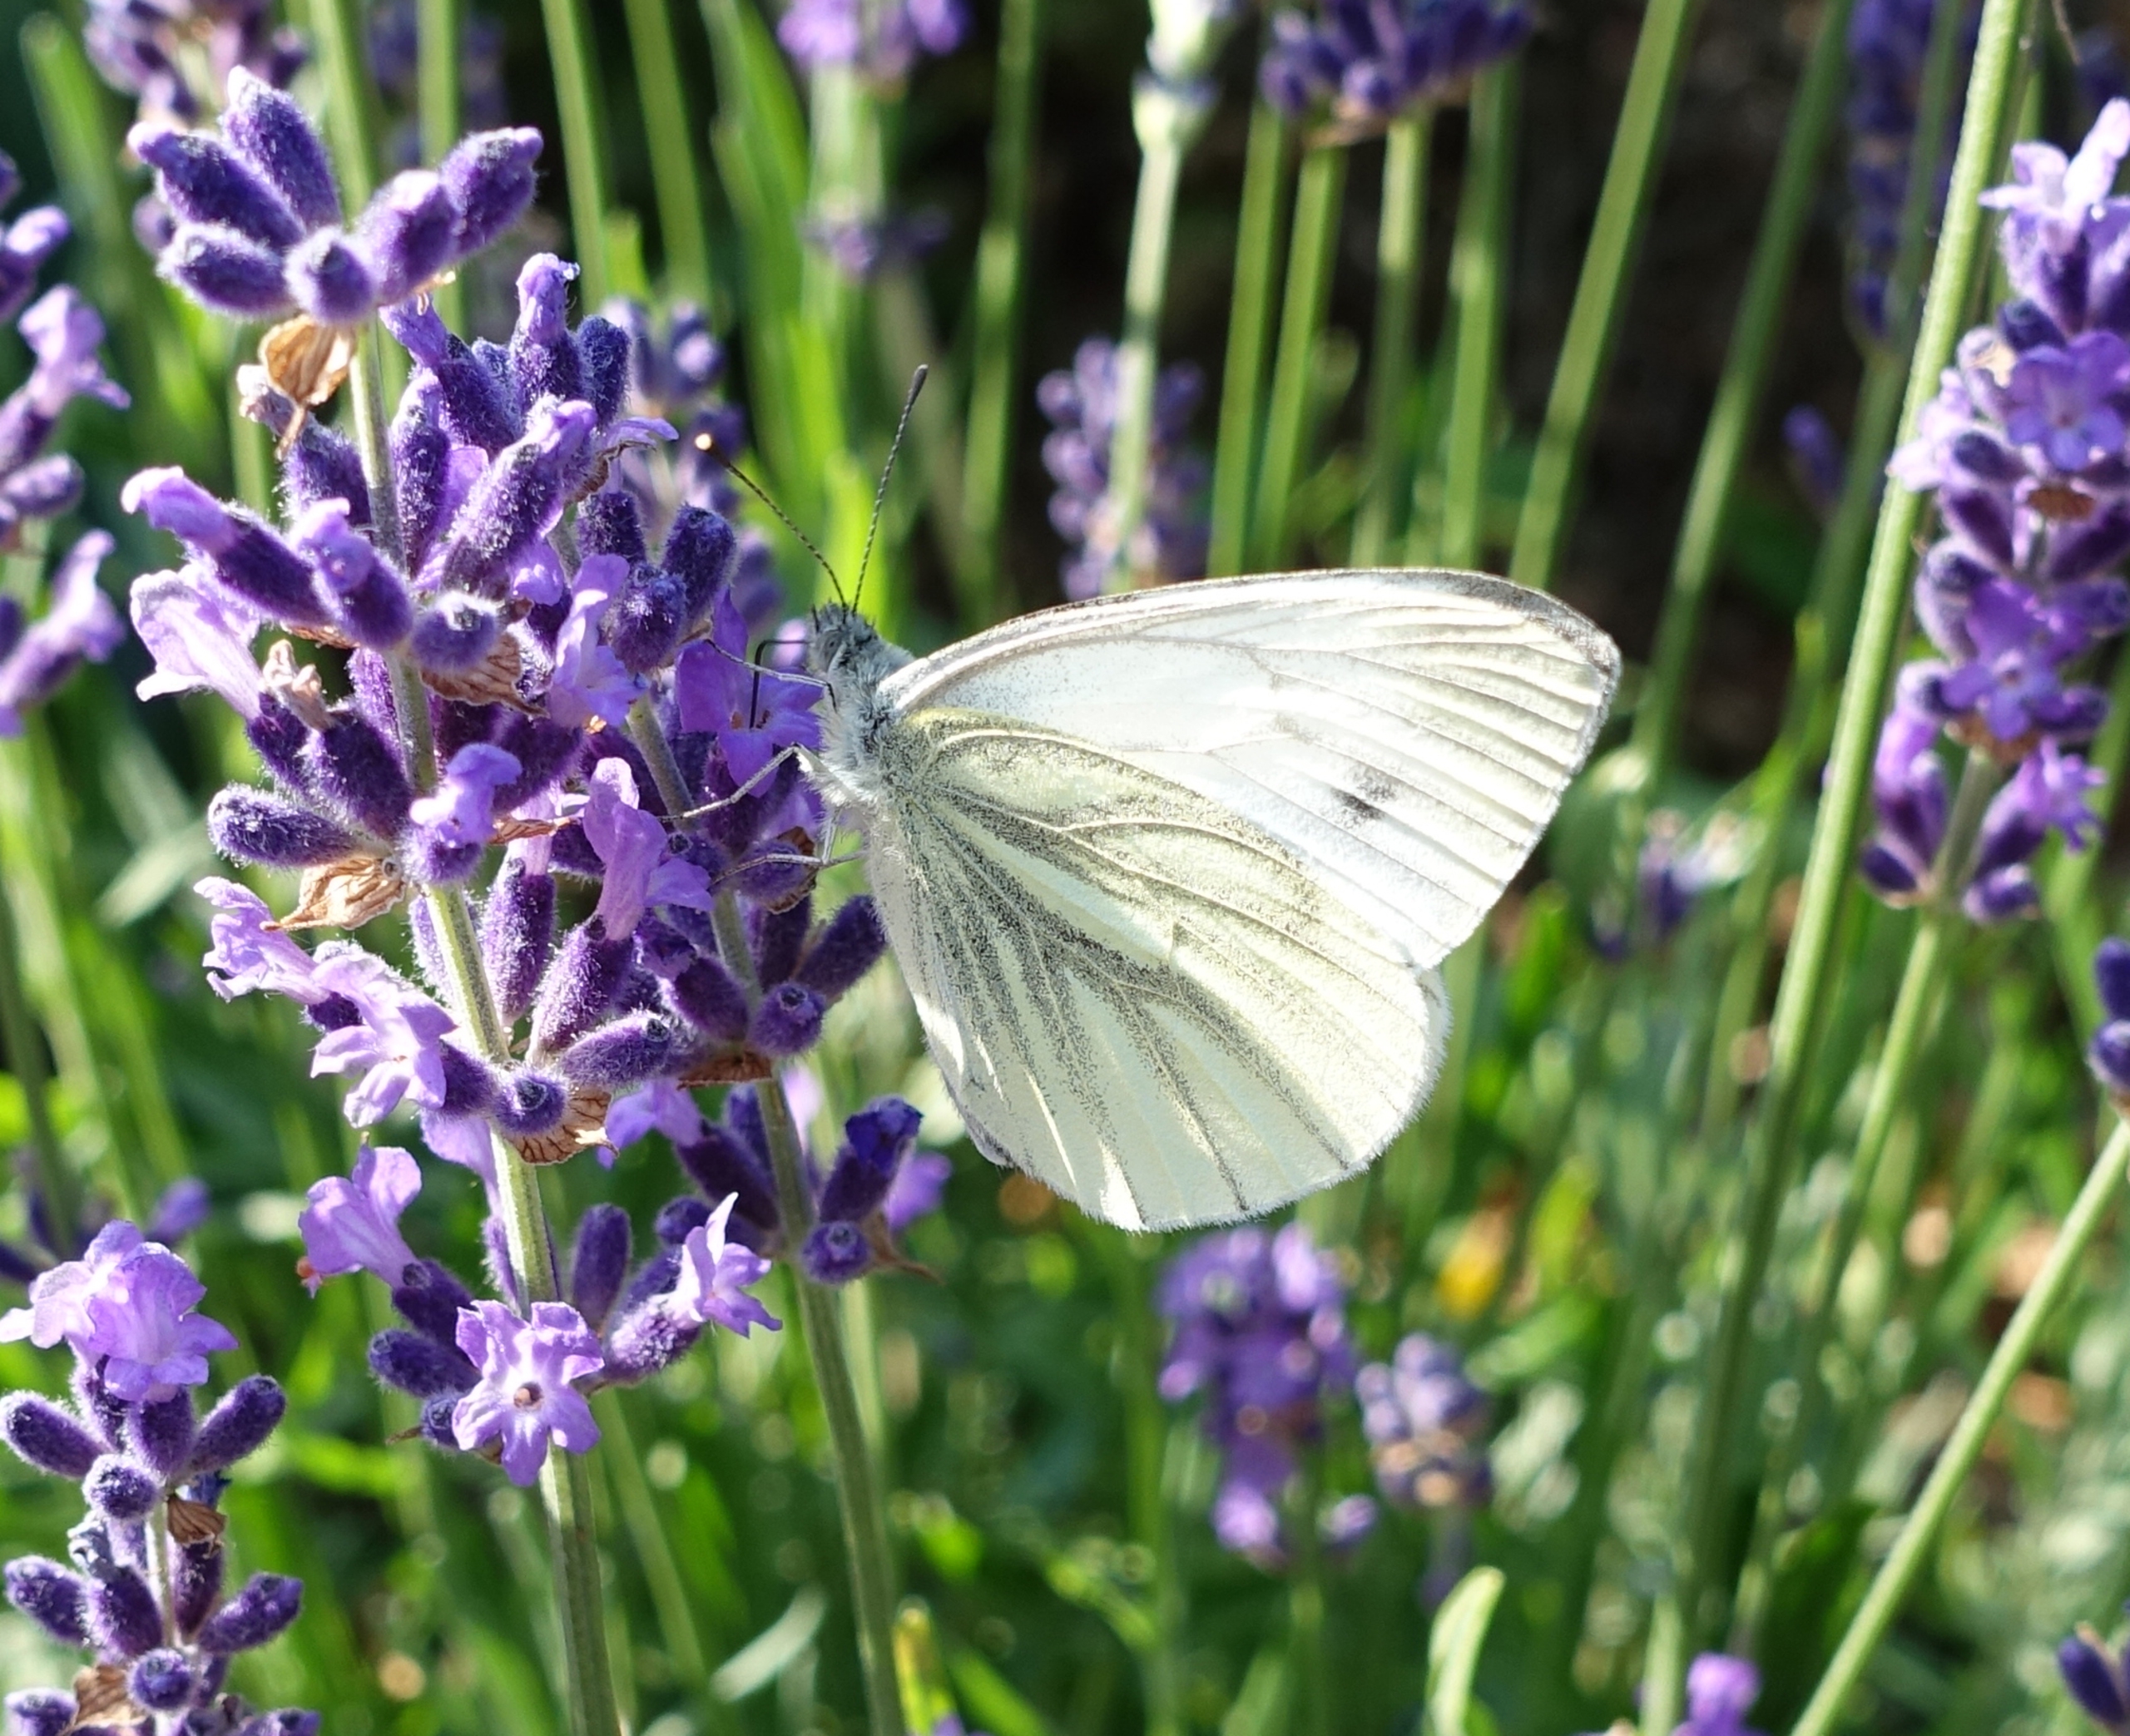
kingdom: Animalia
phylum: Arthropoda
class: Insecta
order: Lepidoptera
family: Pieridae
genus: Pieris
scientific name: Pieris napi
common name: Grønåret kålsommerfugl
